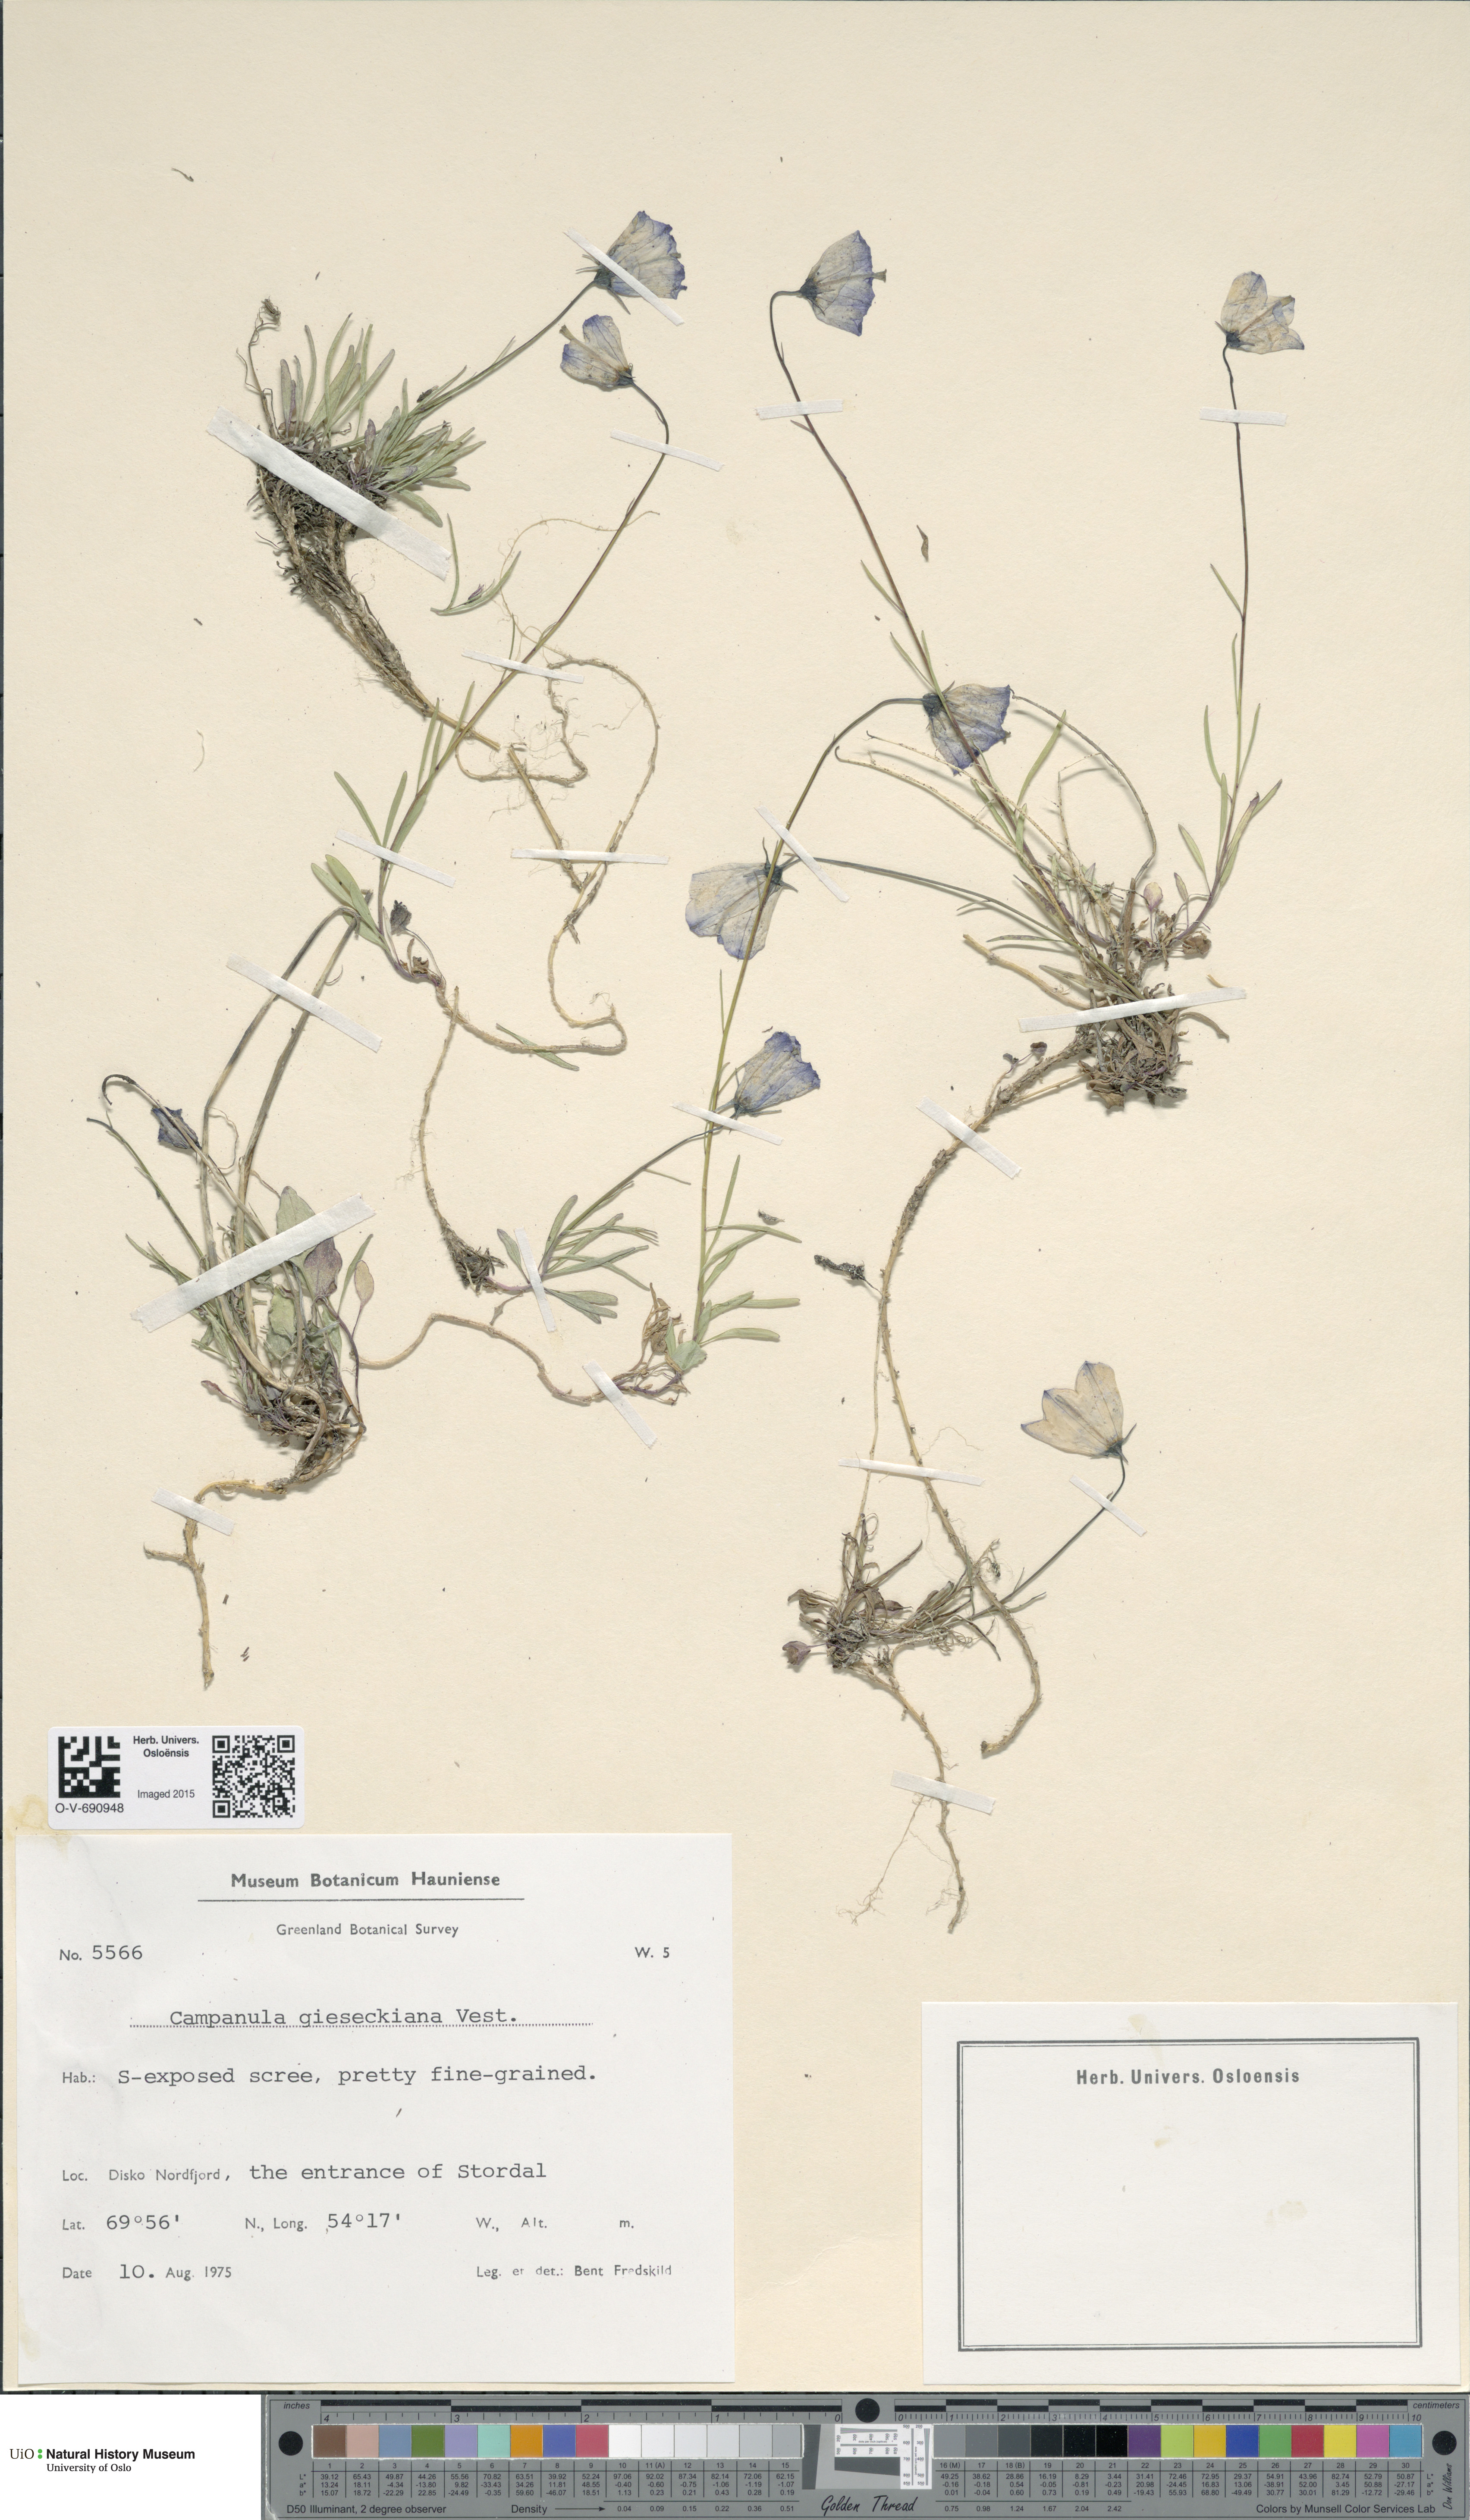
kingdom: Plantae
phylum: Tracheophyta
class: Magnoliopsida
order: Asterales
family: Campanulaceae
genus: Campanula
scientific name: Campanula rotundifolia
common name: Harebell
